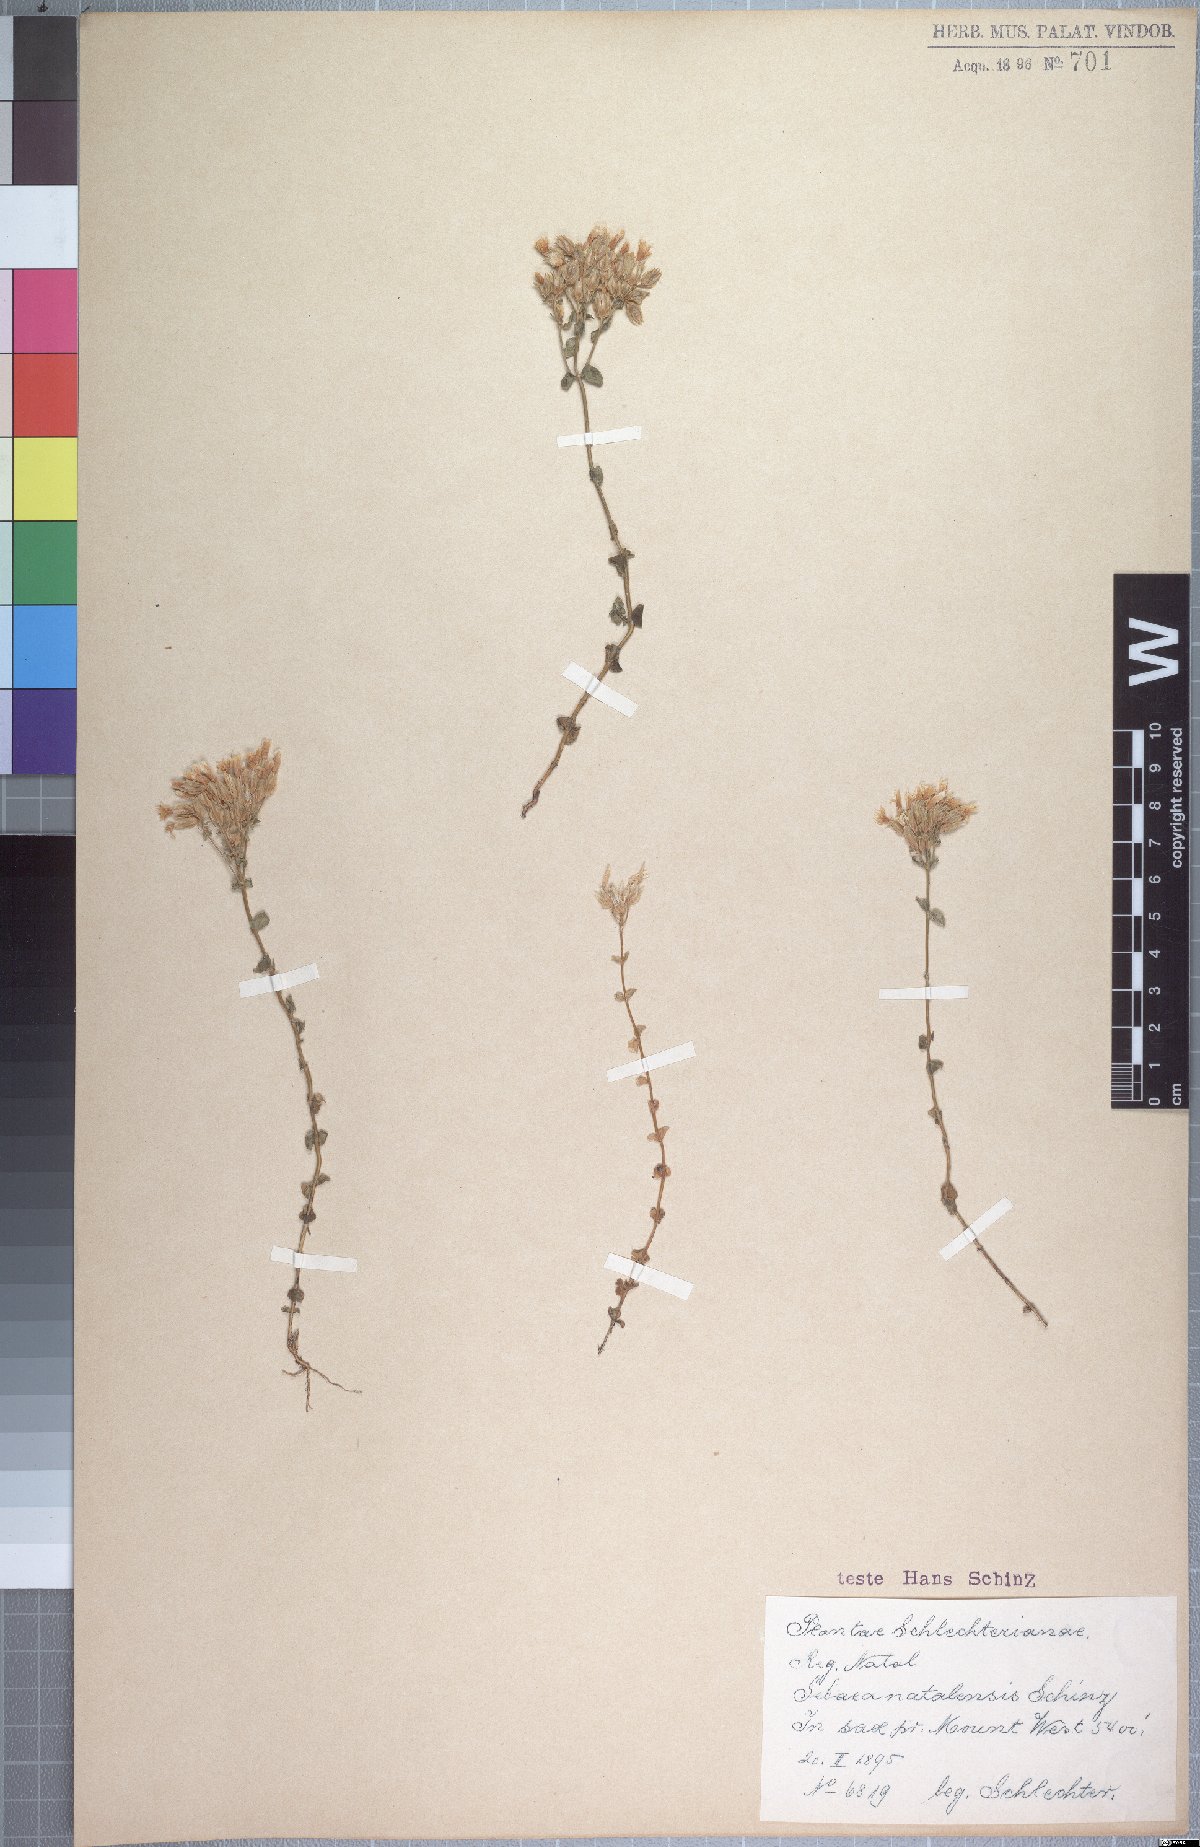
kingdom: Plantae
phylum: Tracheophyta
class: Magnoliopsida
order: Gentianales
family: Gentianaceae
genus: Sebaea
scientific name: Sebaea natalensis
